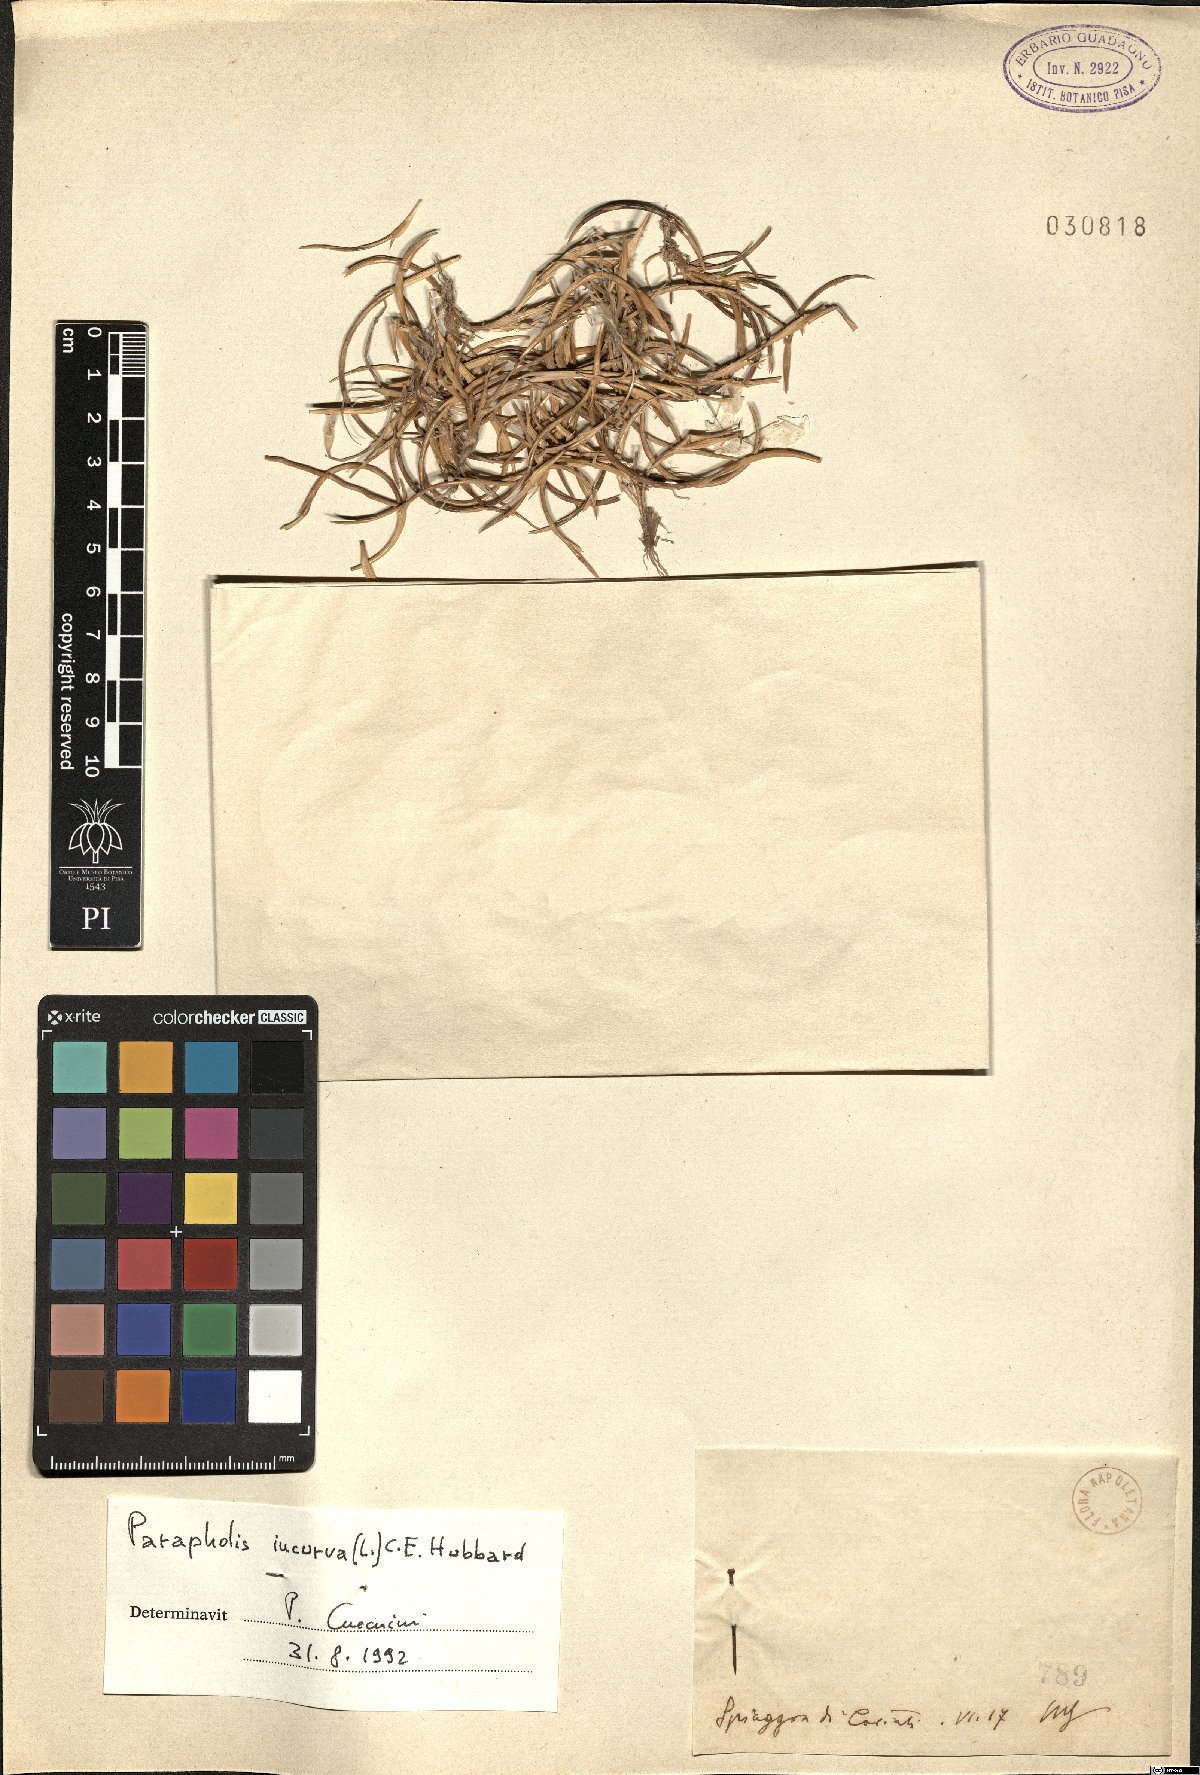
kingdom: Plantae
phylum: Tracheophyta
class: Liliopsida
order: Poales
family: Poaceae
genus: Parapholis
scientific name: Parapholis incurva
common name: Curved sicklegrass
